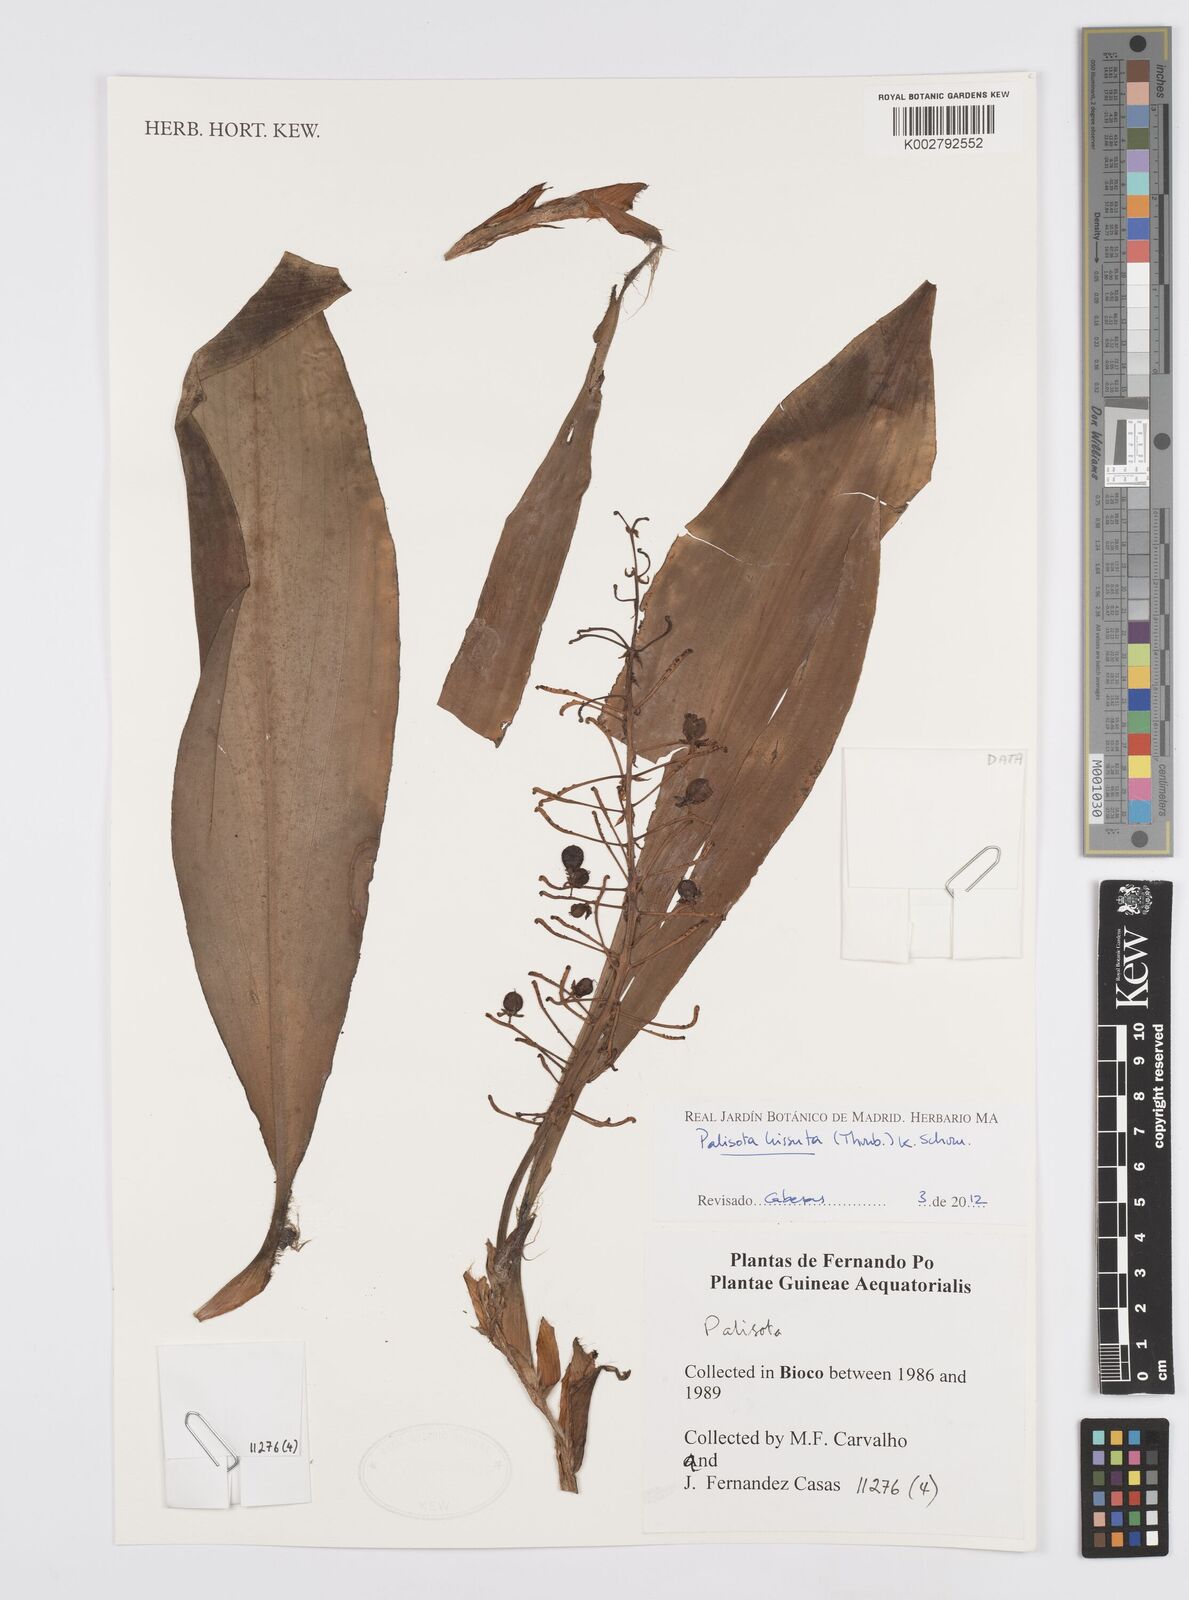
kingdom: Plantae
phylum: Tracheophyta
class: Liliopsida
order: Commelinales
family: Commelinaceae
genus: Palisota
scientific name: Palisota hirsuta
